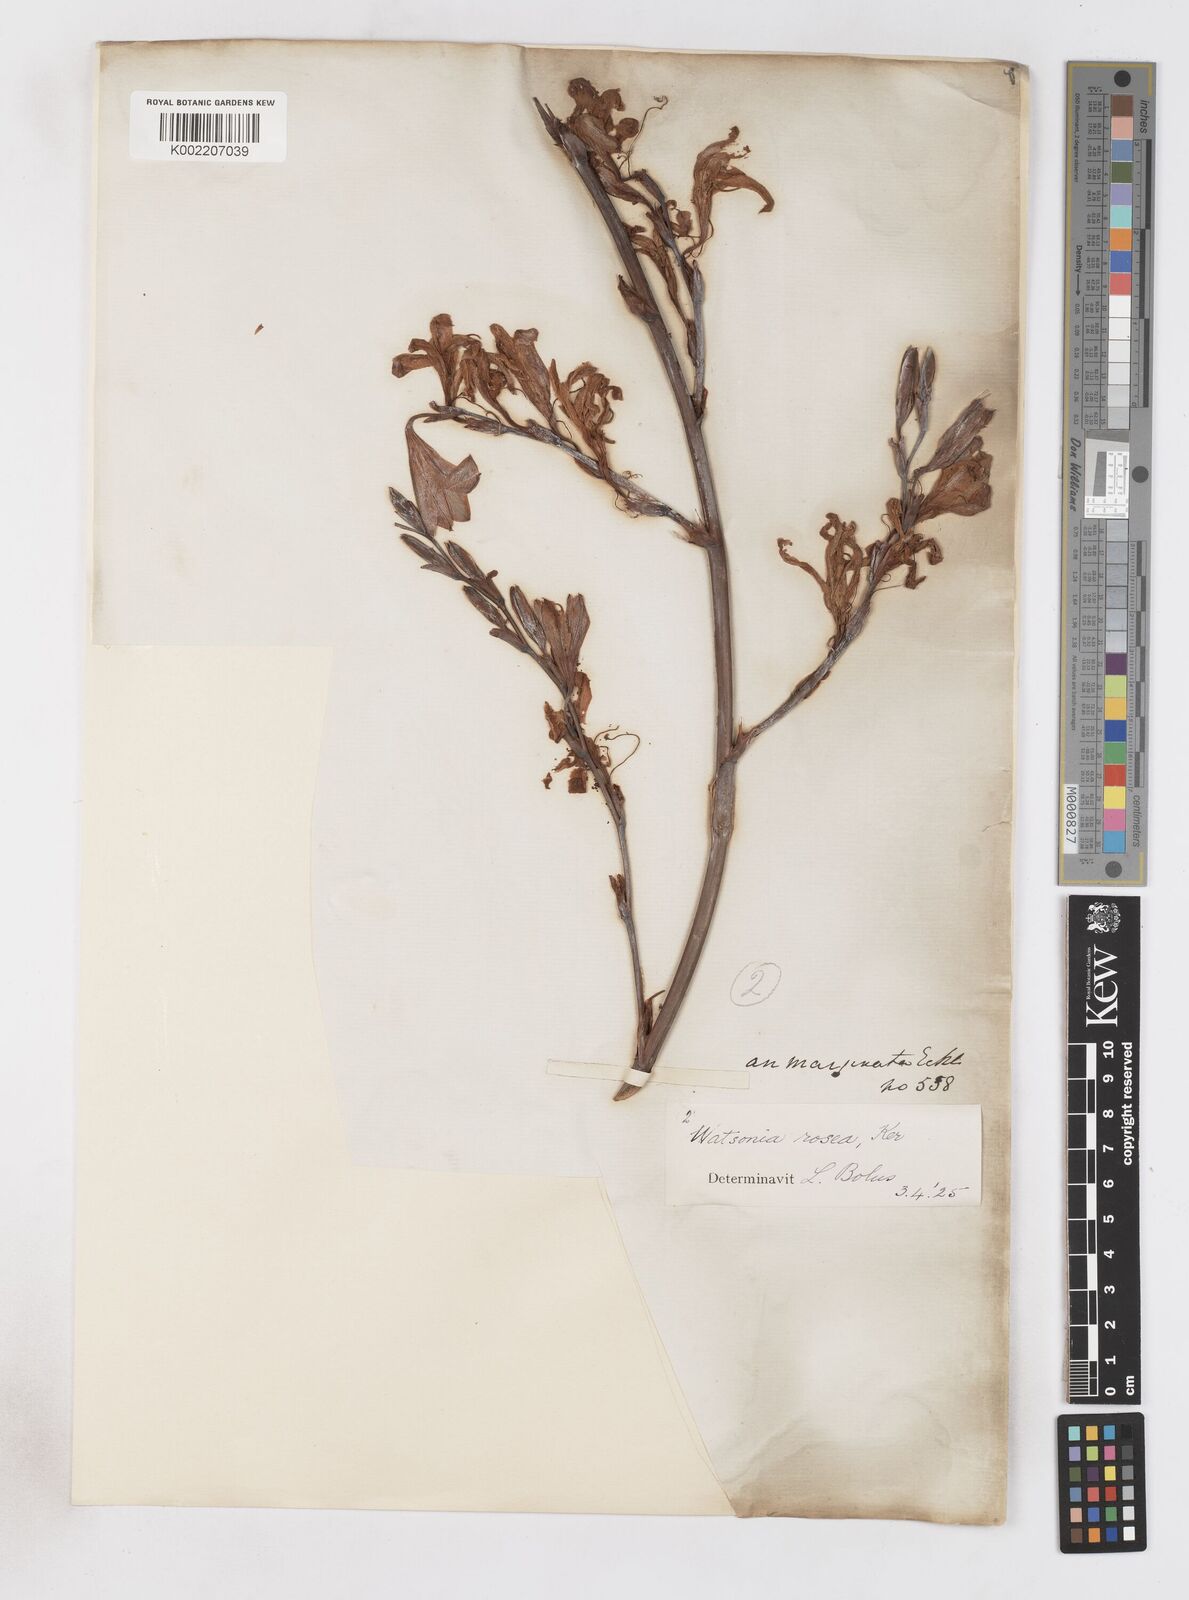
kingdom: Plantae
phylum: Tracheophyta
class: Liliopsida
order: Asparagales
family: Iridaceae
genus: Watsonia
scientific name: Watsonia borbonica
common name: Bugle-lily
